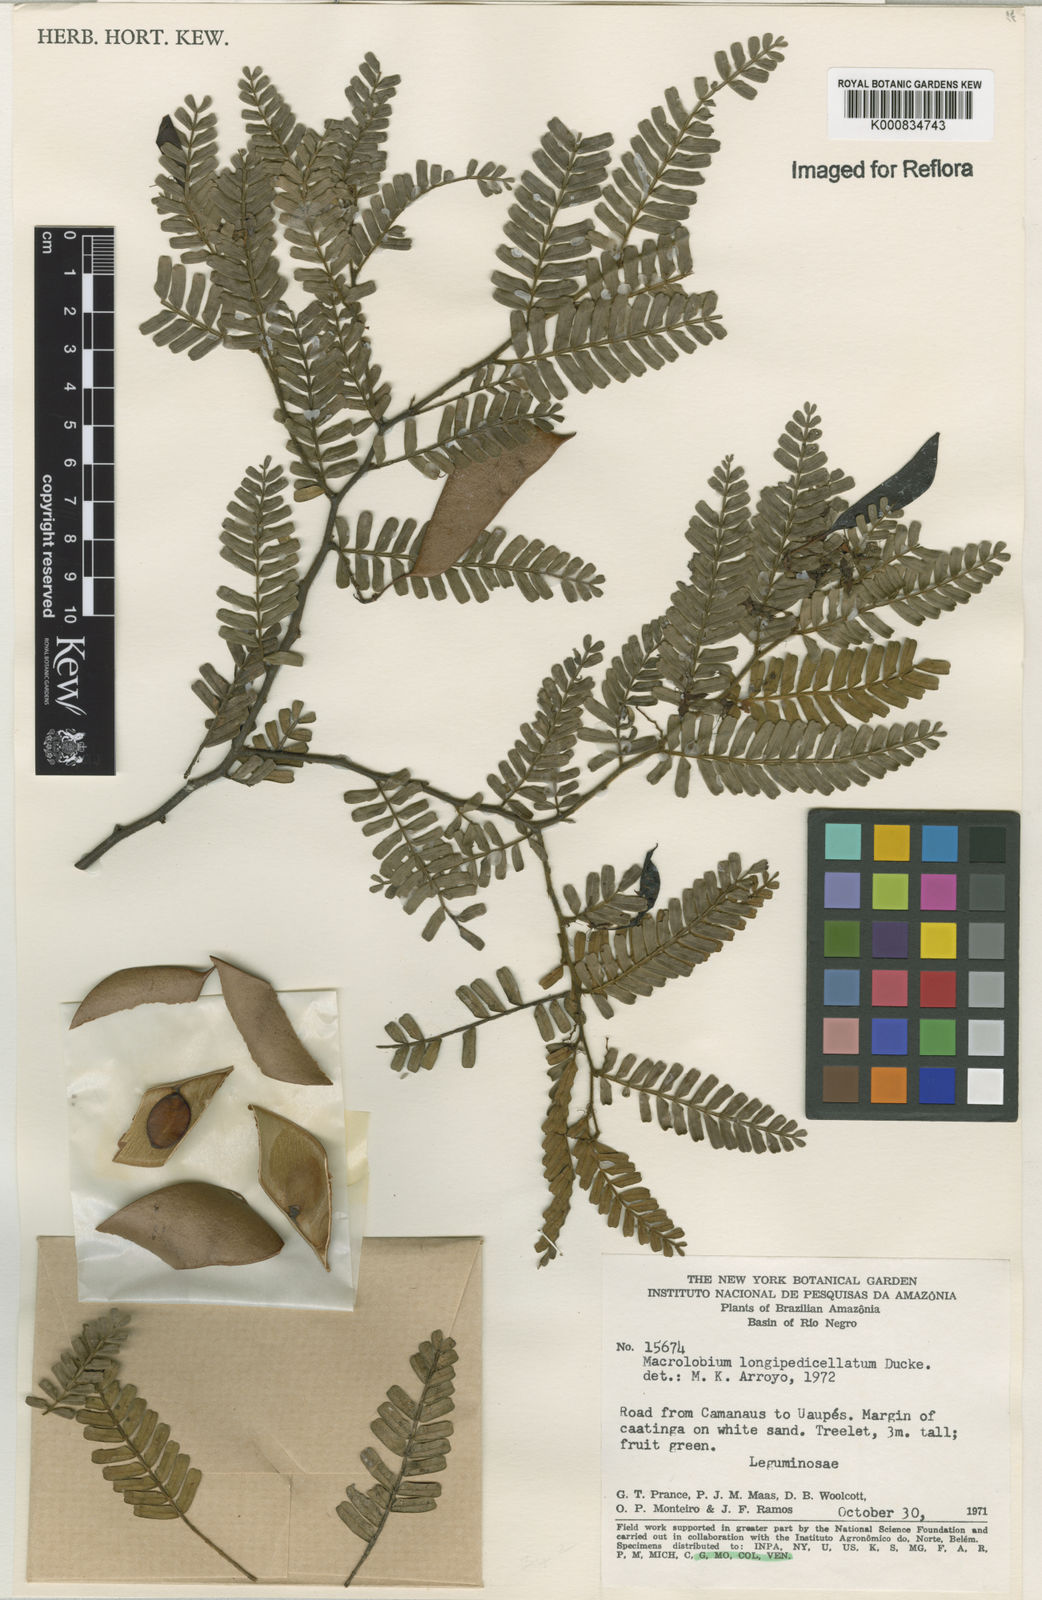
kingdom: Plantae
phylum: Tracheophyta
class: Magnoliopsida
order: Fabales
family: Fabaceae
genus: Macrolobium
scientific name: Macrolobium longipedicellatum
